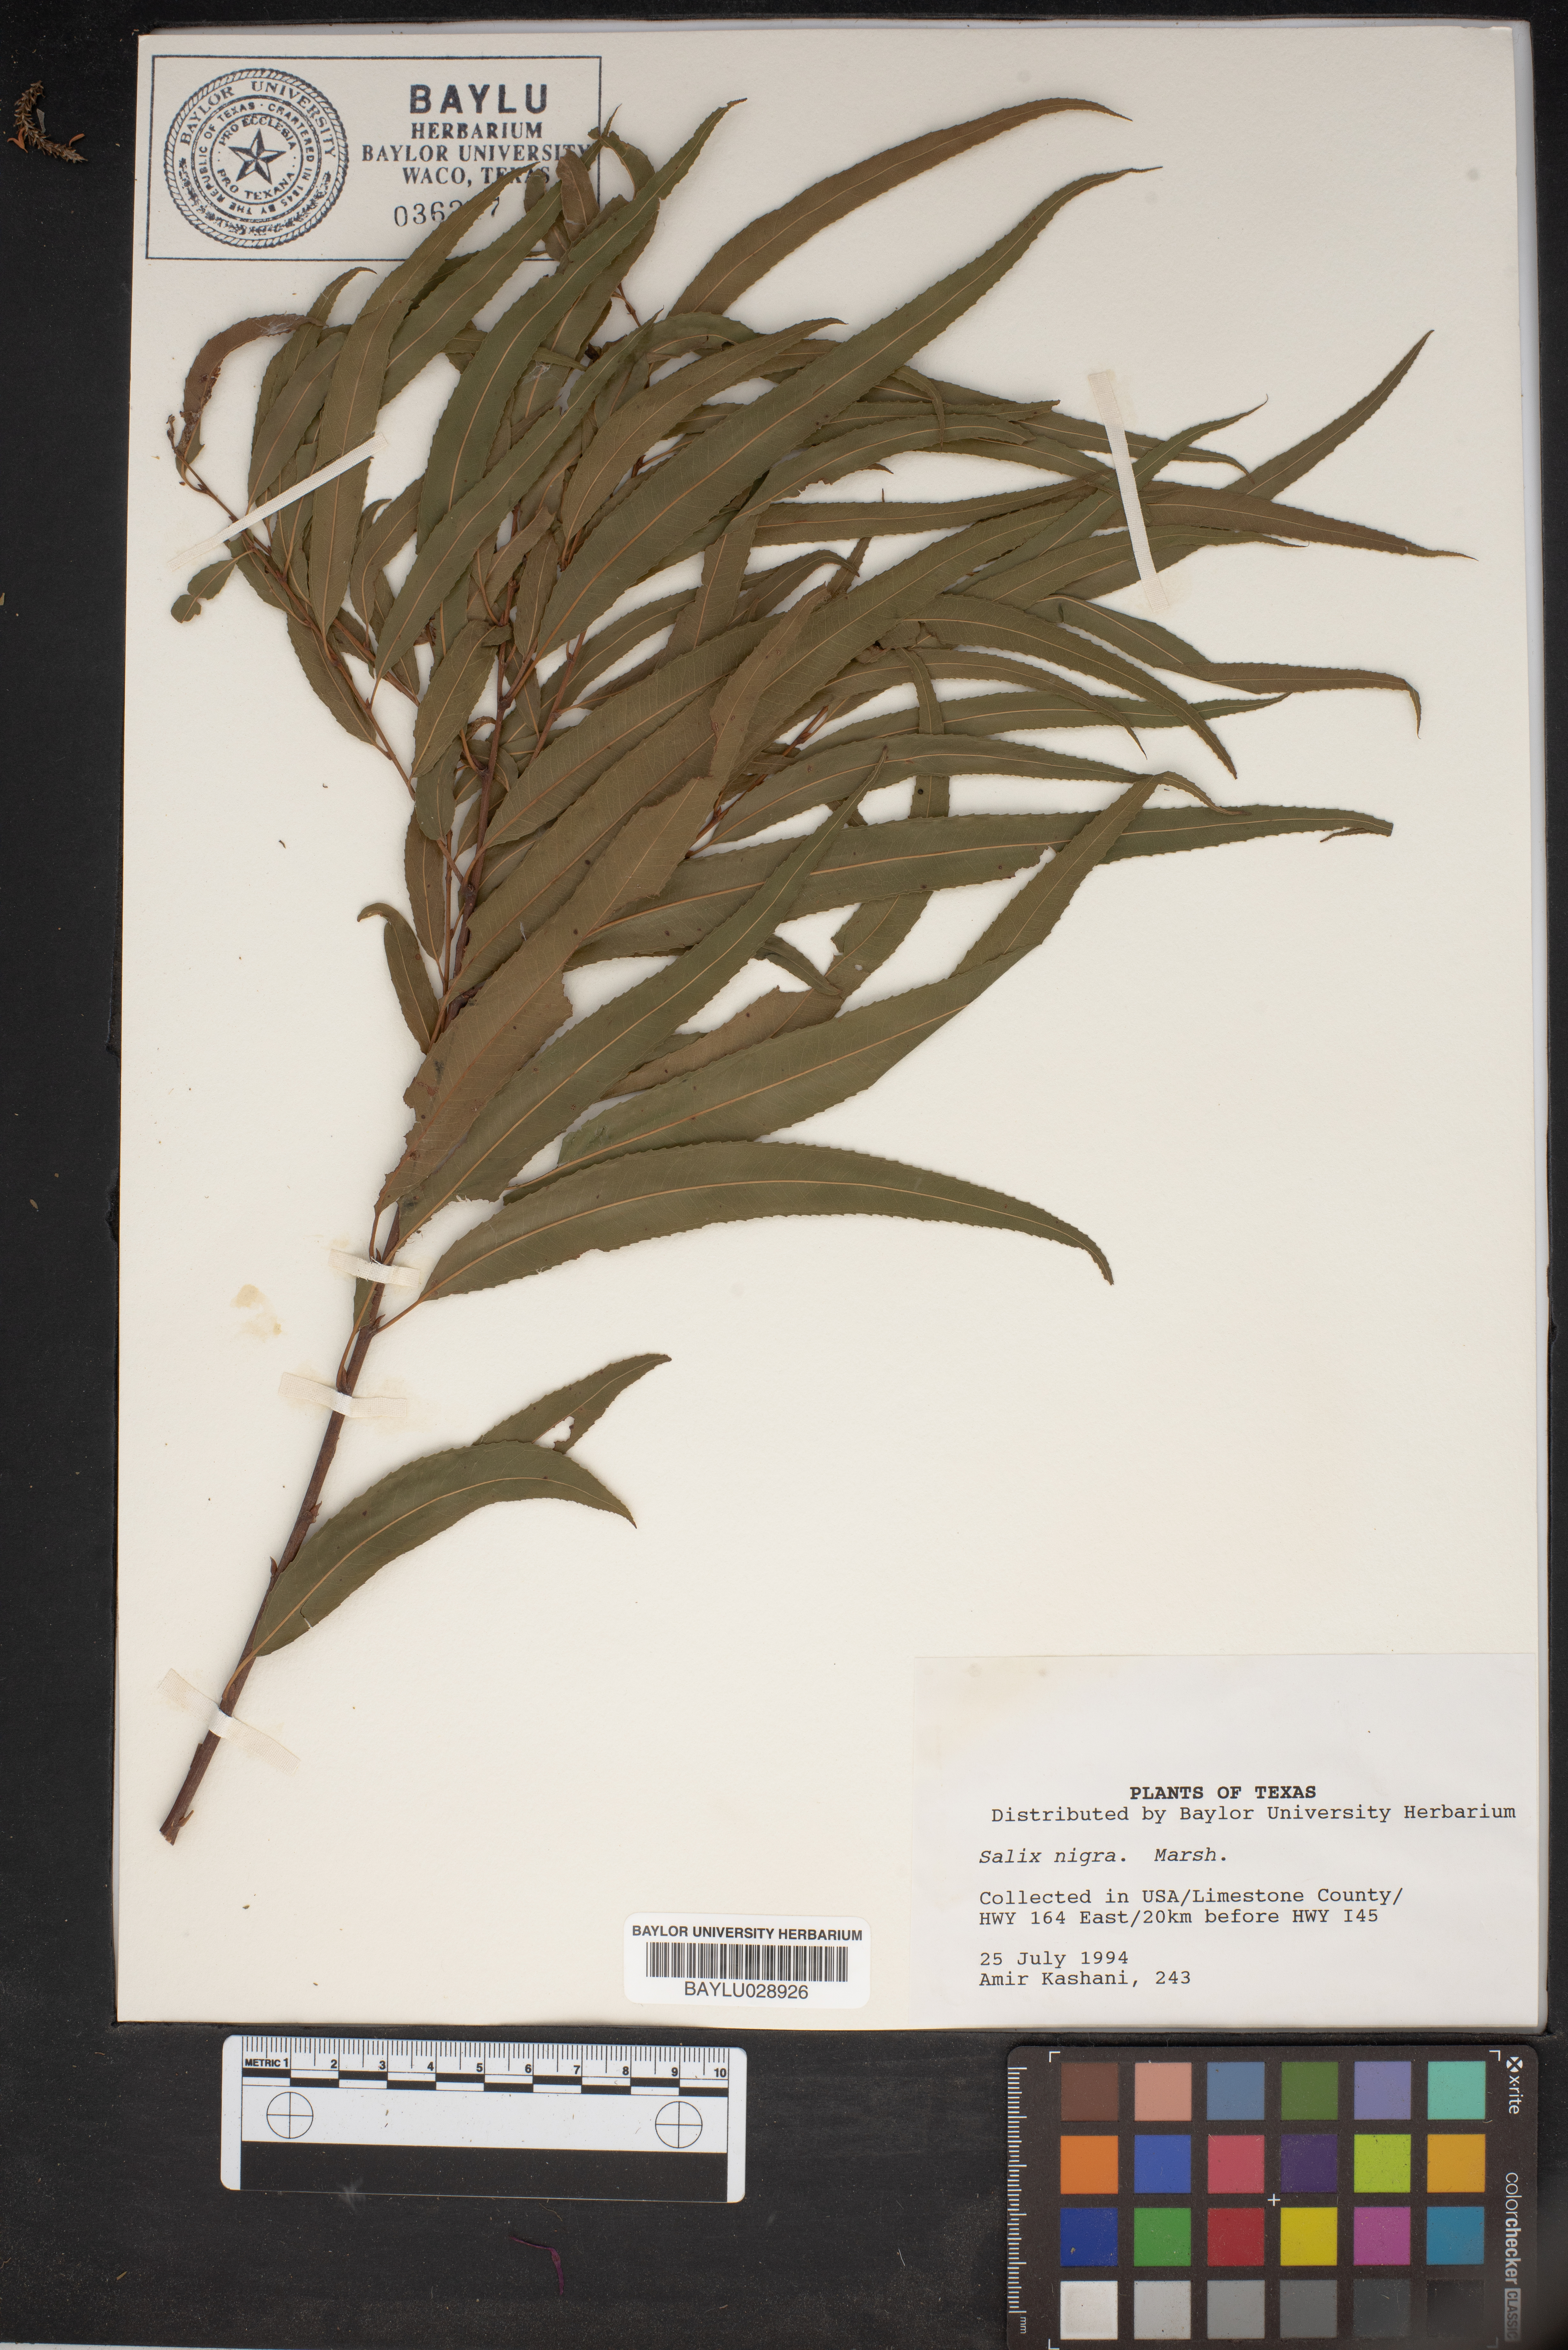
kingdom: Plantae
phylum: Tracheophyta
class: Magnoliopsida
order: Malpighiales
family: Salicaceae
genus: Salix
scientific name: Salix nigra
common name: Black willow
